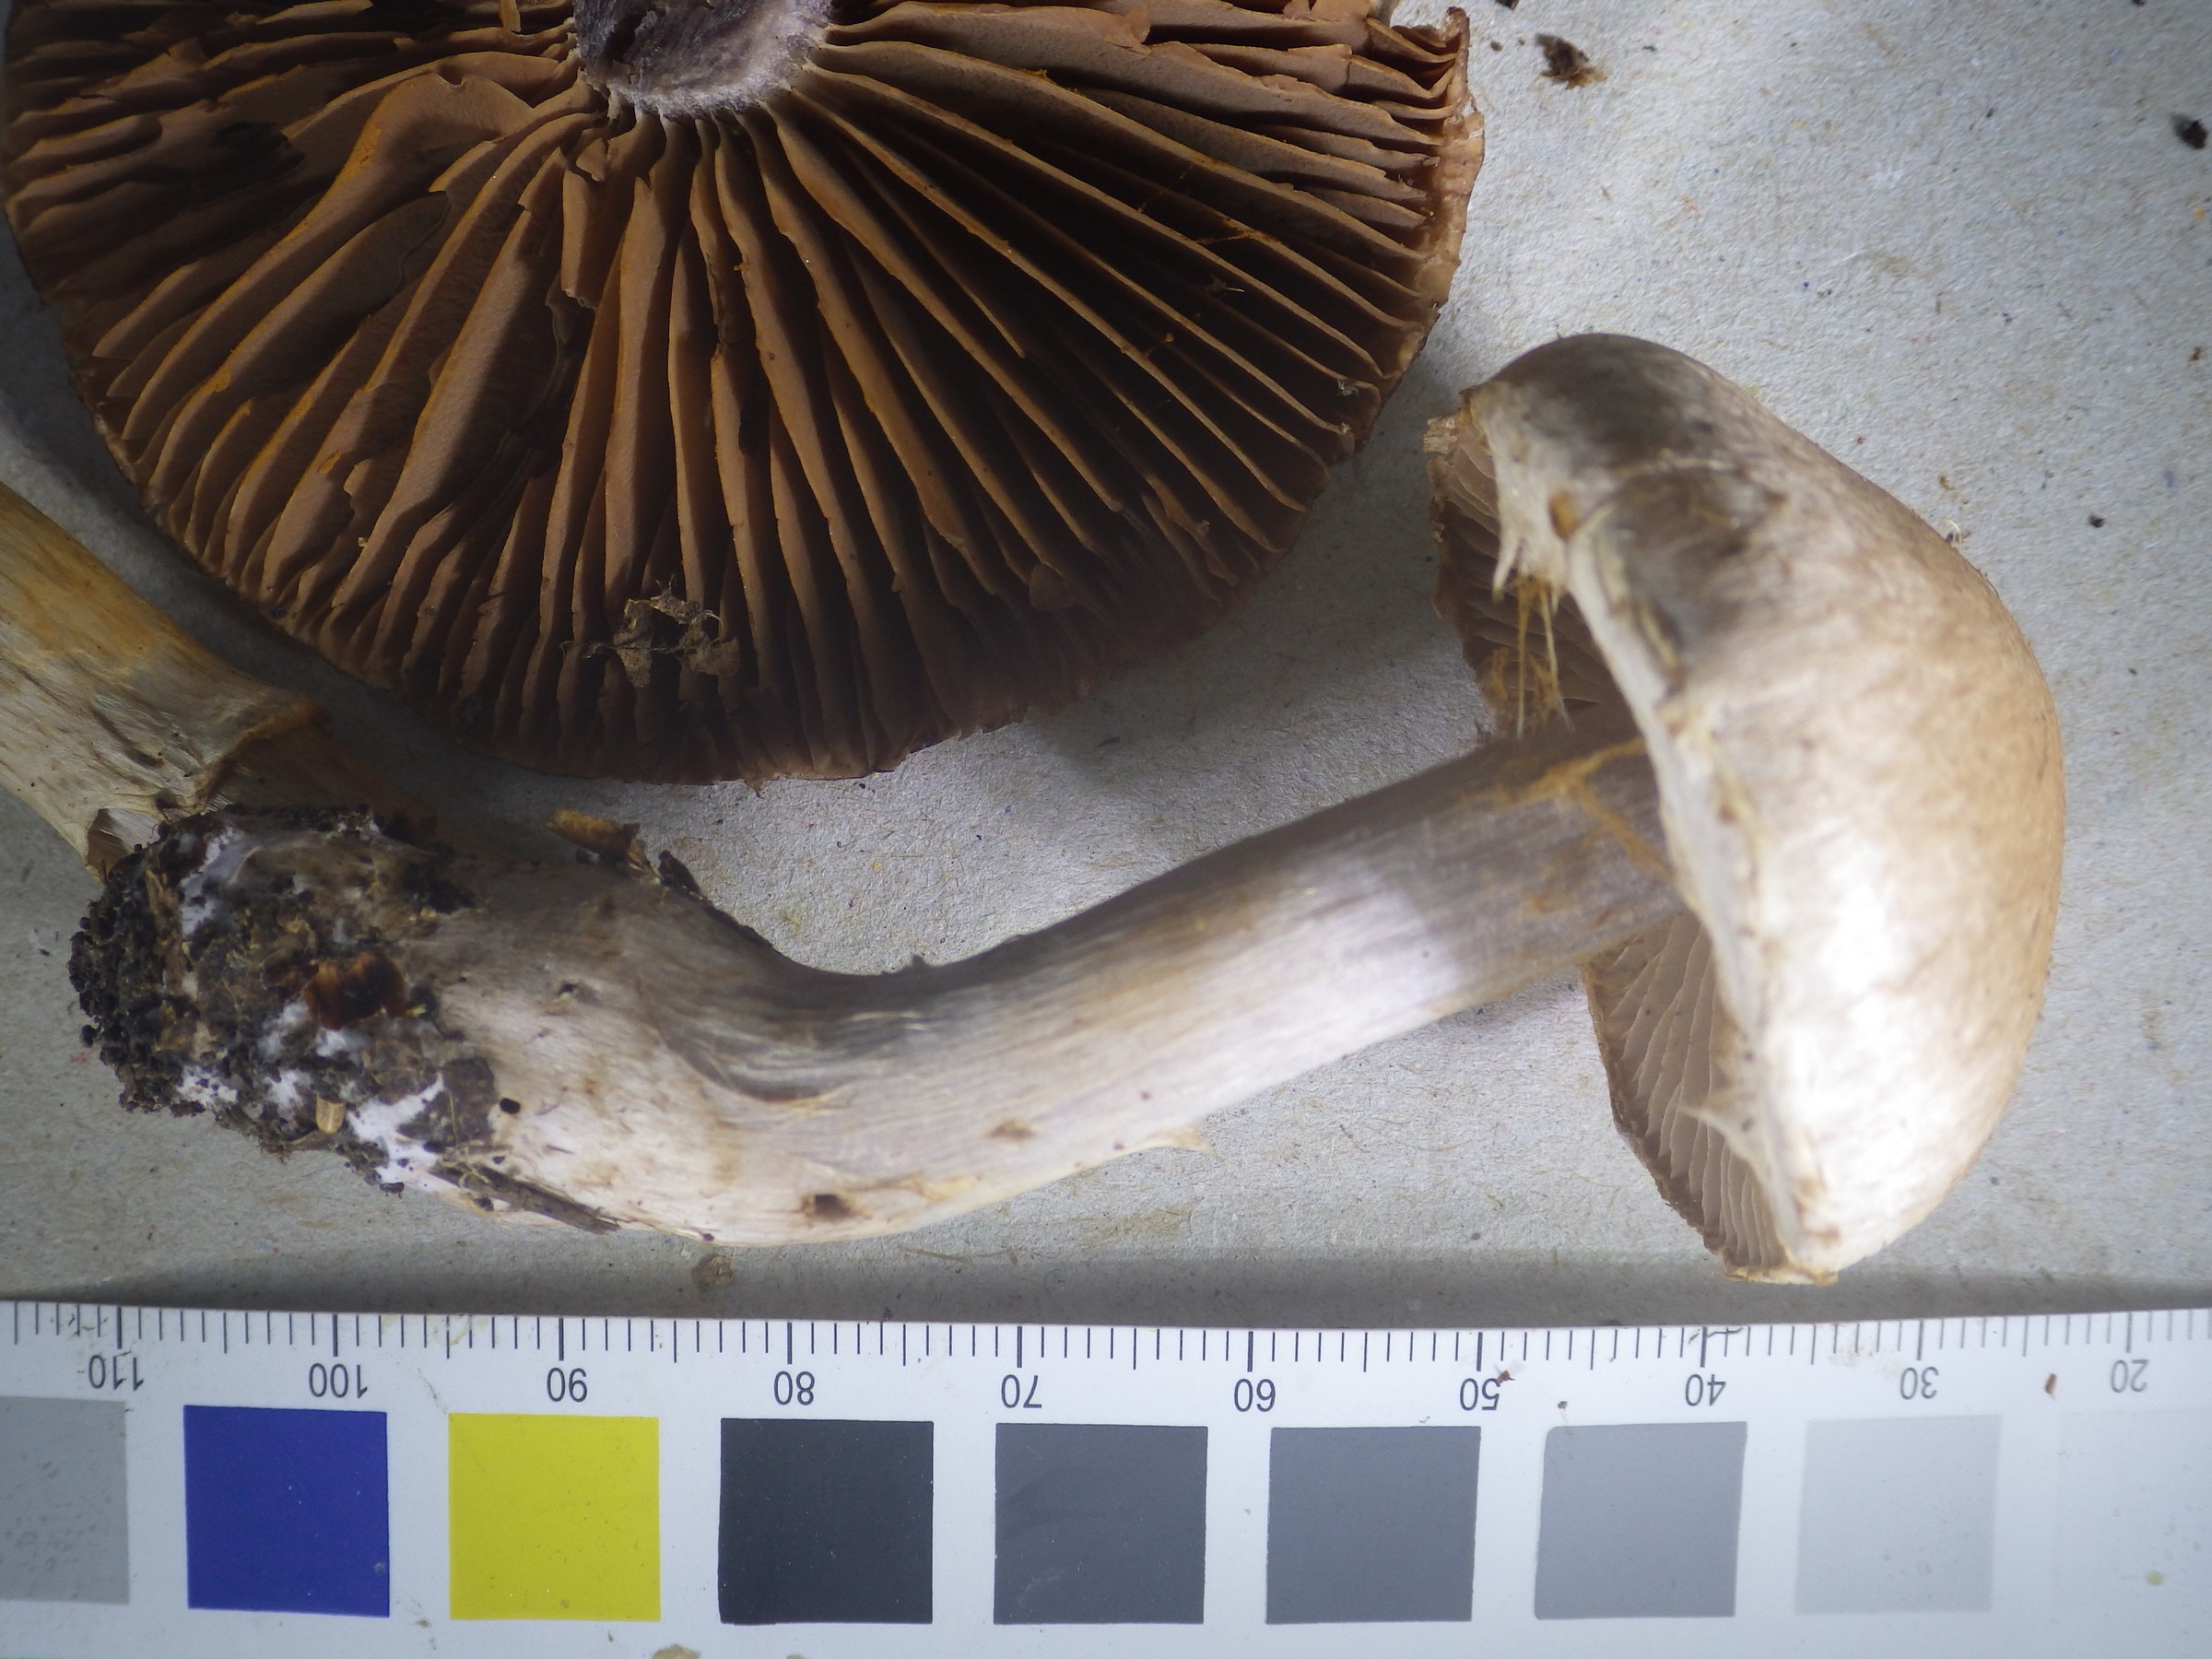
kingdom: Fungi
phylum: Basidiomycota
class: Agaricomycetes
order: Agaricales
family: Cortinariaceae
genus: Cortinarius
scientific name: Cortinarius torvus
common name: Stocking webcap
